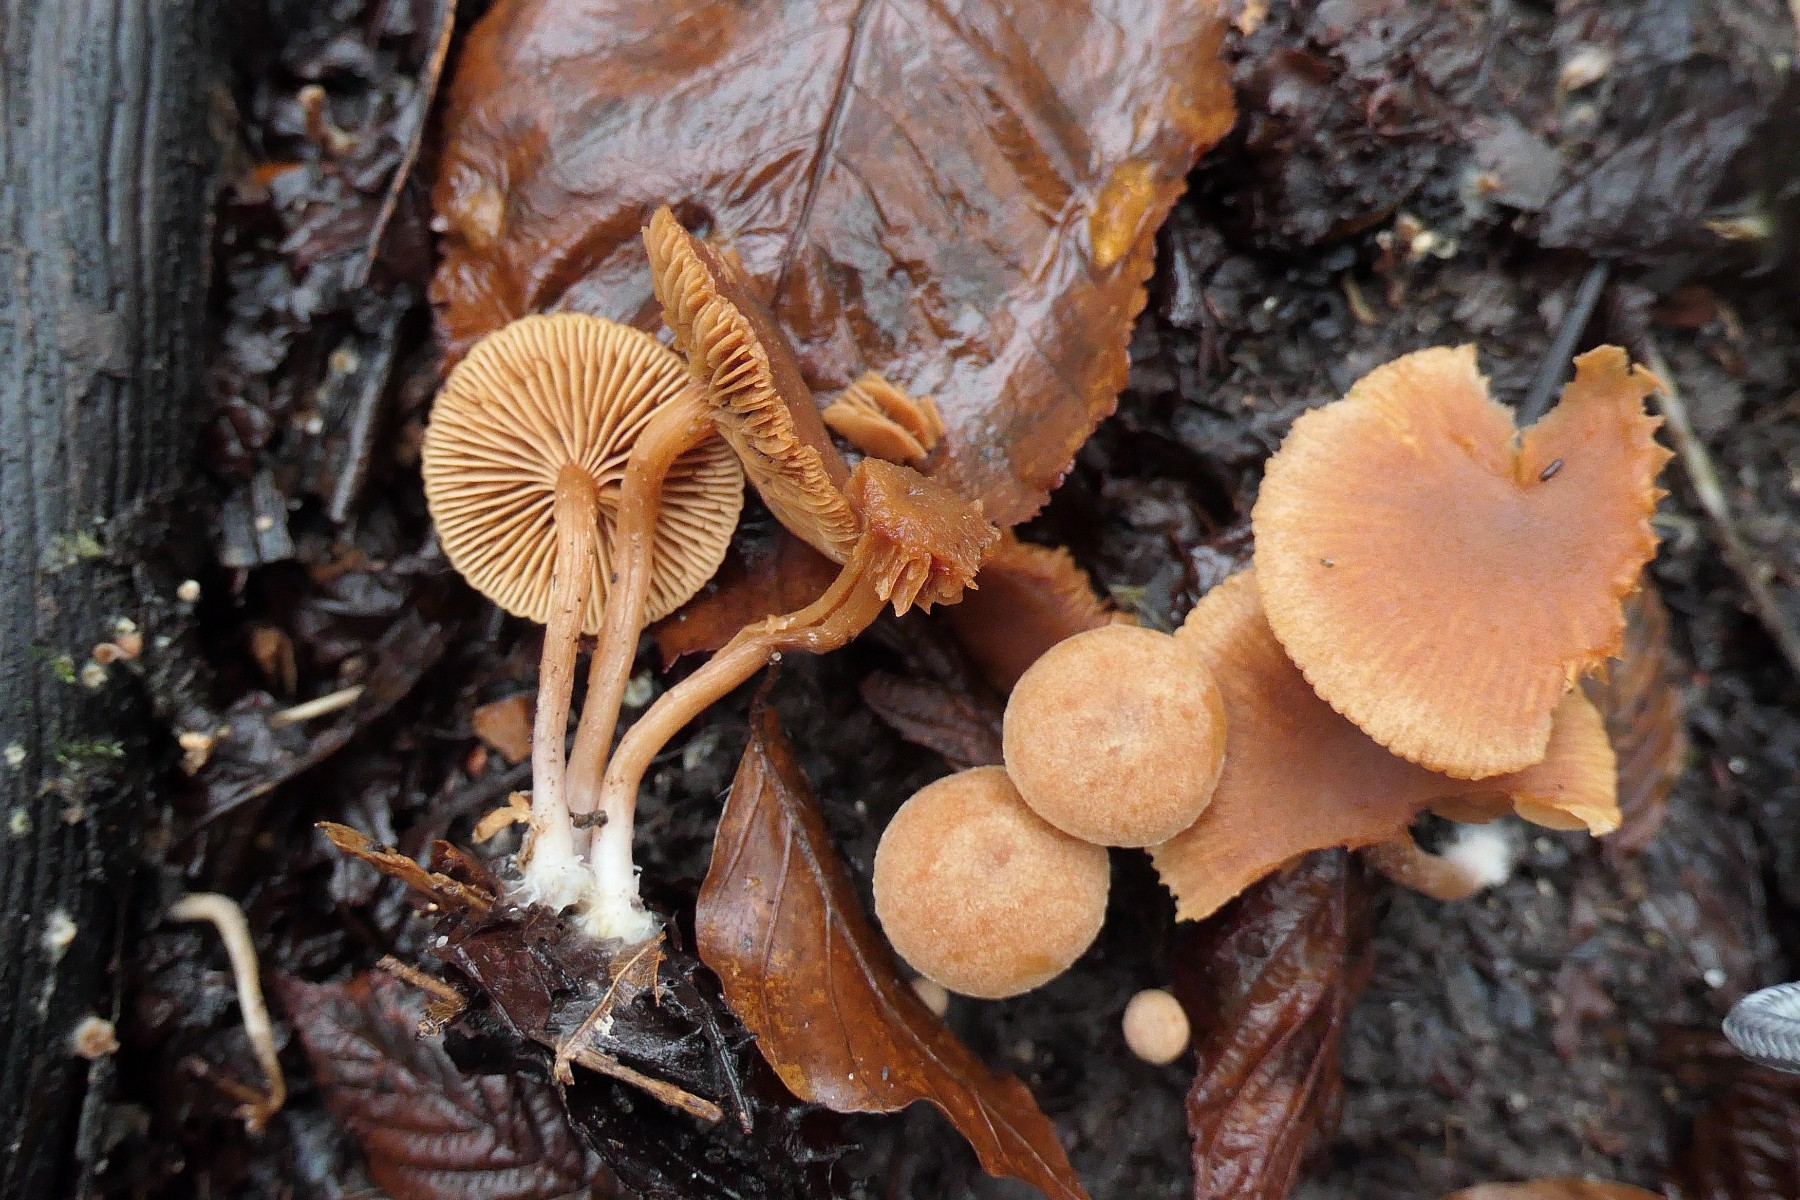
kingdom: Fungi
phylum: Basidiomycota
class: Agaricomycetes
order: Agaricales
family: Tubariaceae
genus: Tubaria
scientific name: Tubaria furfuracea
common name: kliddet fnughat
